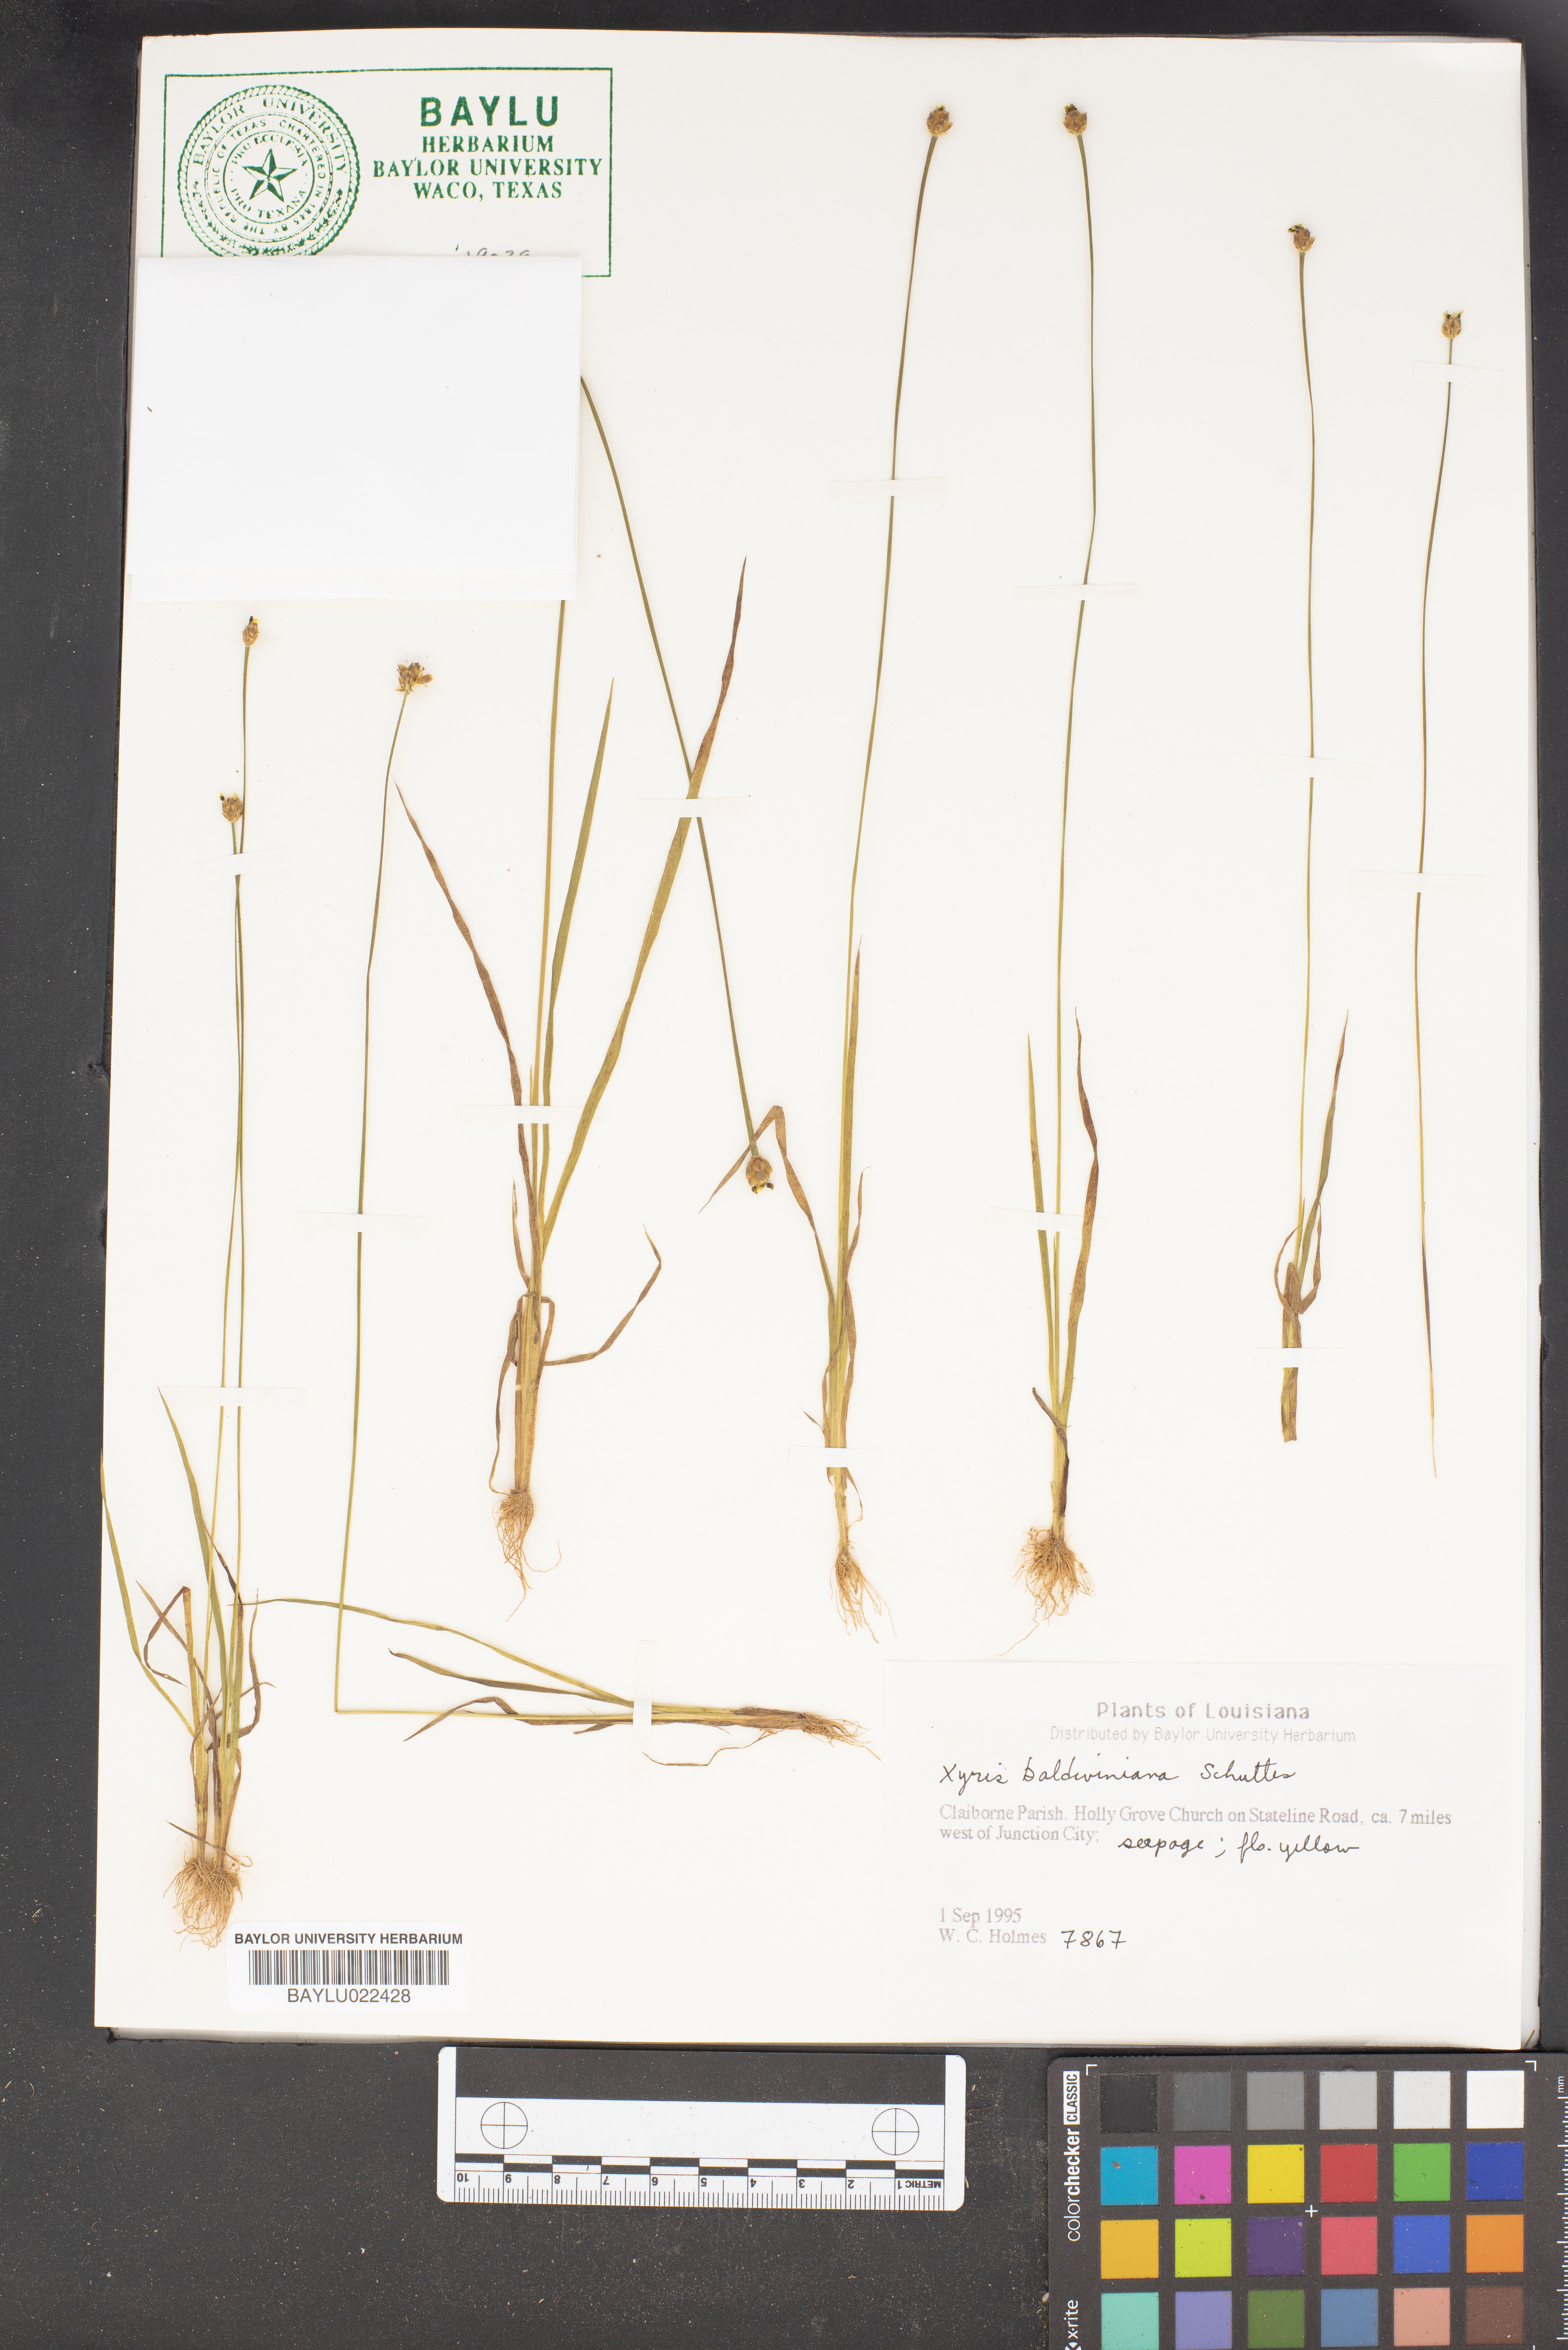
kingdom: Plantae
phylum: Tracheophyta
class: Liliopsida
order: Poales
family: Xyridaceae
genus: Xyris
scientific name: Xyris baldwiniana
